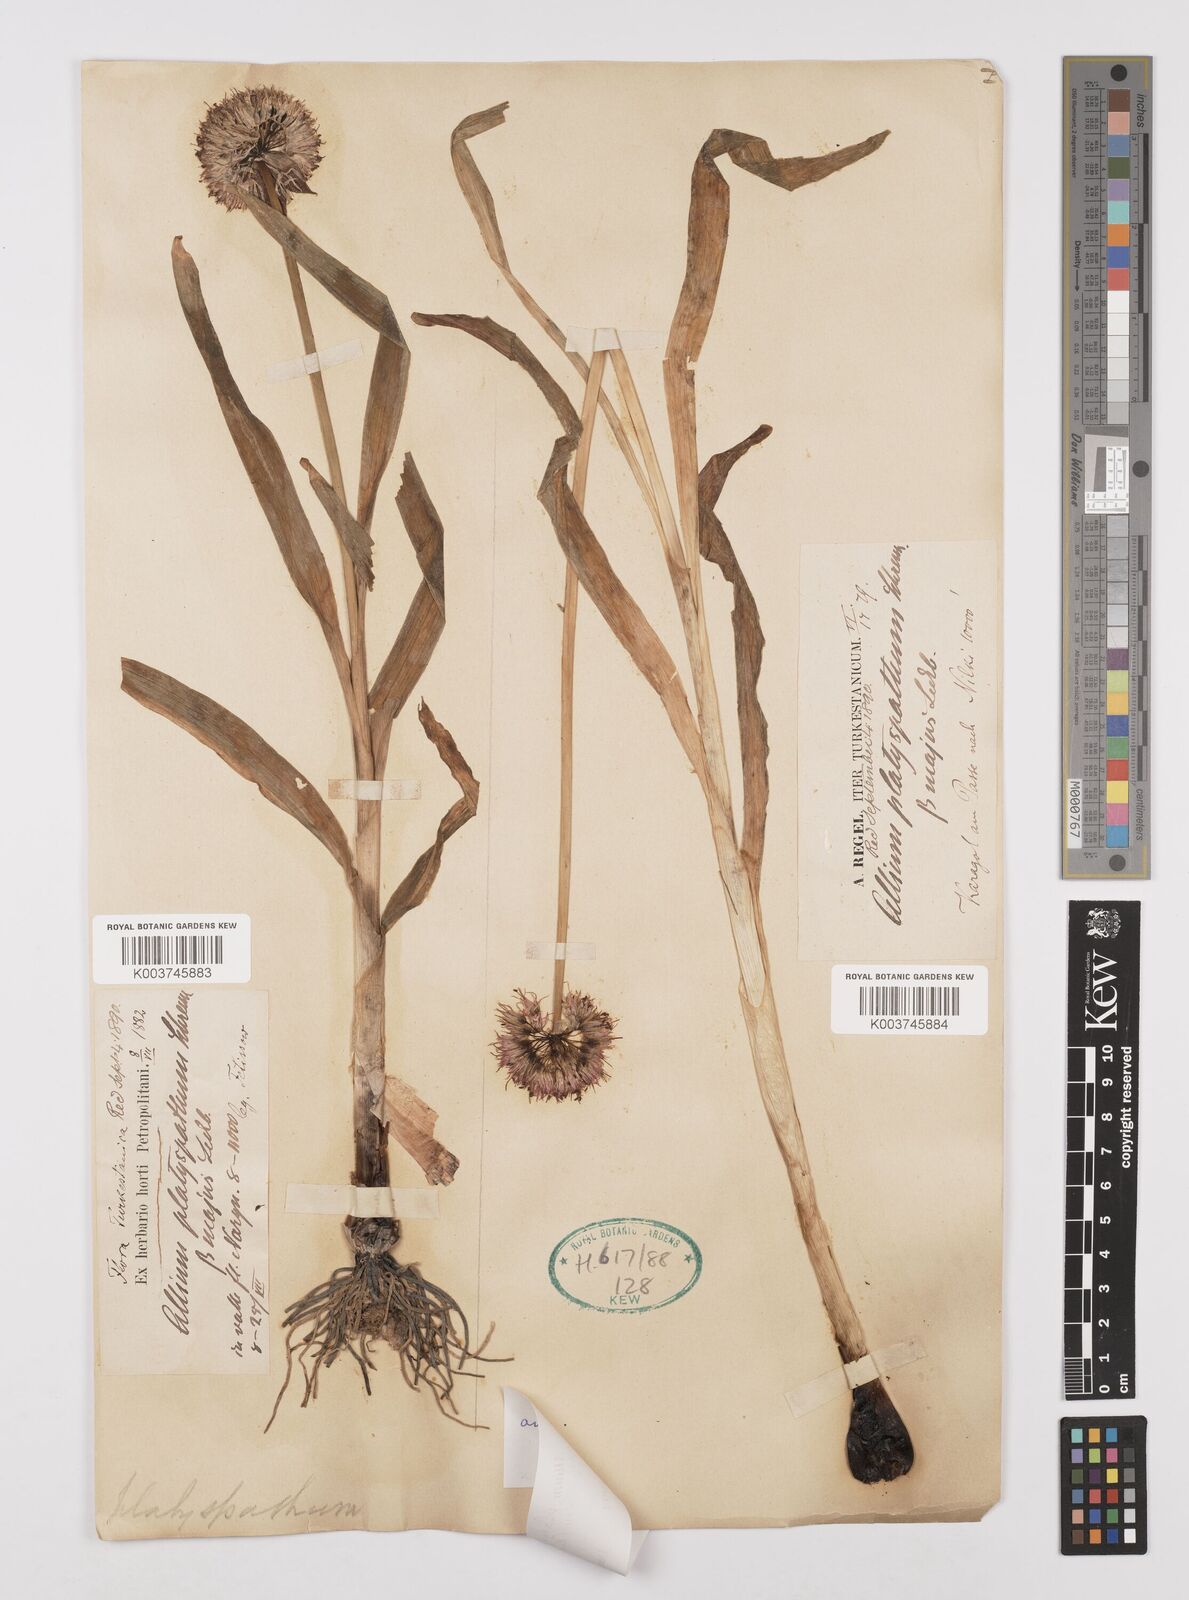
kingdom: Plantae
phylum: Tracheophyta
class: Liliopsida
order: Asparagales
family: Amaryllidaceae
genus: Allium
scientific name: Allium platyspathum
